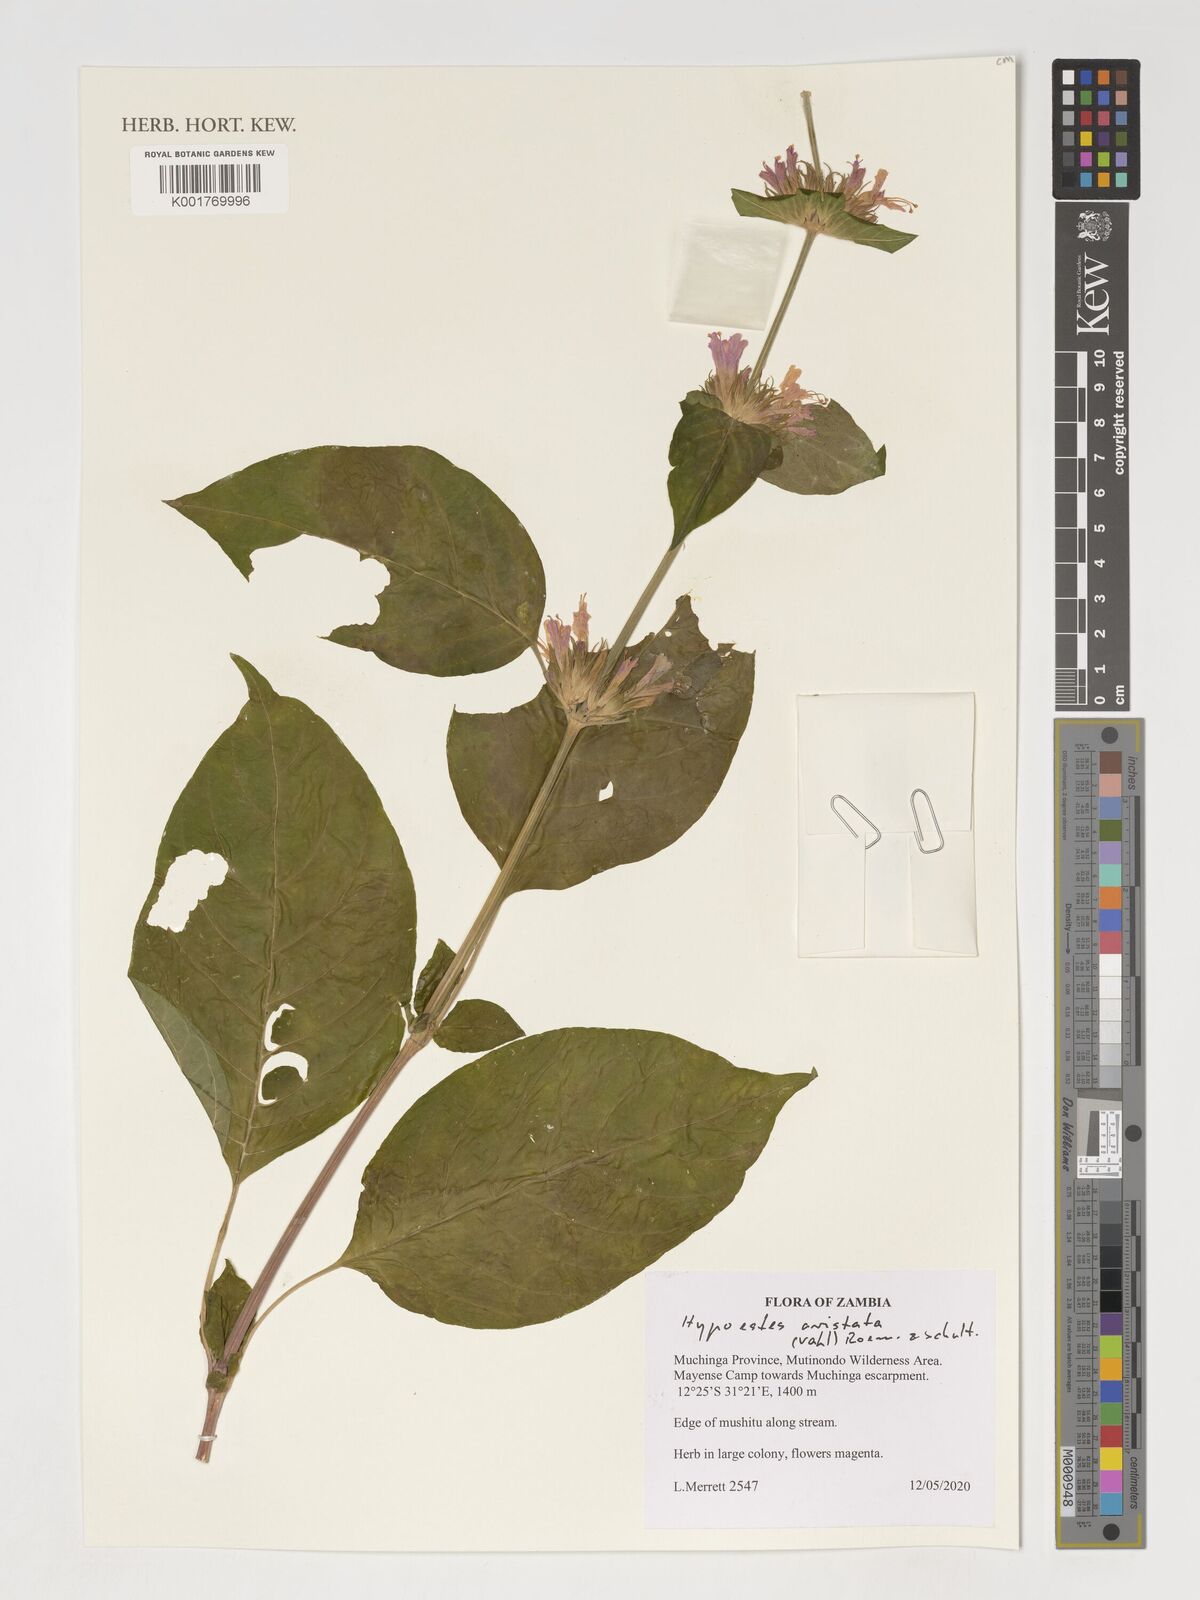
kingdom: Plantae
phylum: Tracheophyta
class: Magnoliopsida
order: Lamiales
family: Acanthaceae
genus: Hypoestes
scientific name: Hypoestes aristata
